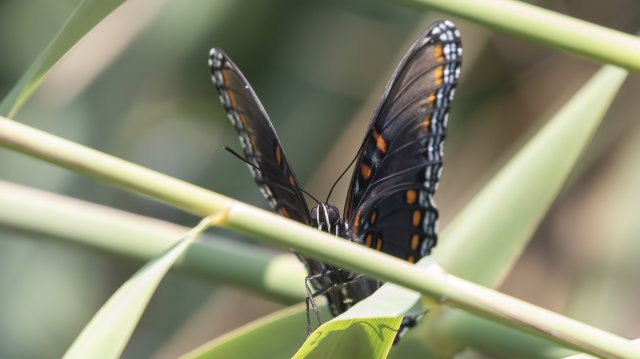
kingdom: Animalia
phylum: Arthropoda
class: Insecta
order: Lepidoptera
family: Nymphalidae
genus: Limenitis
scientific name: Limenitis arthemis
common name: Red-spotted Admiral
